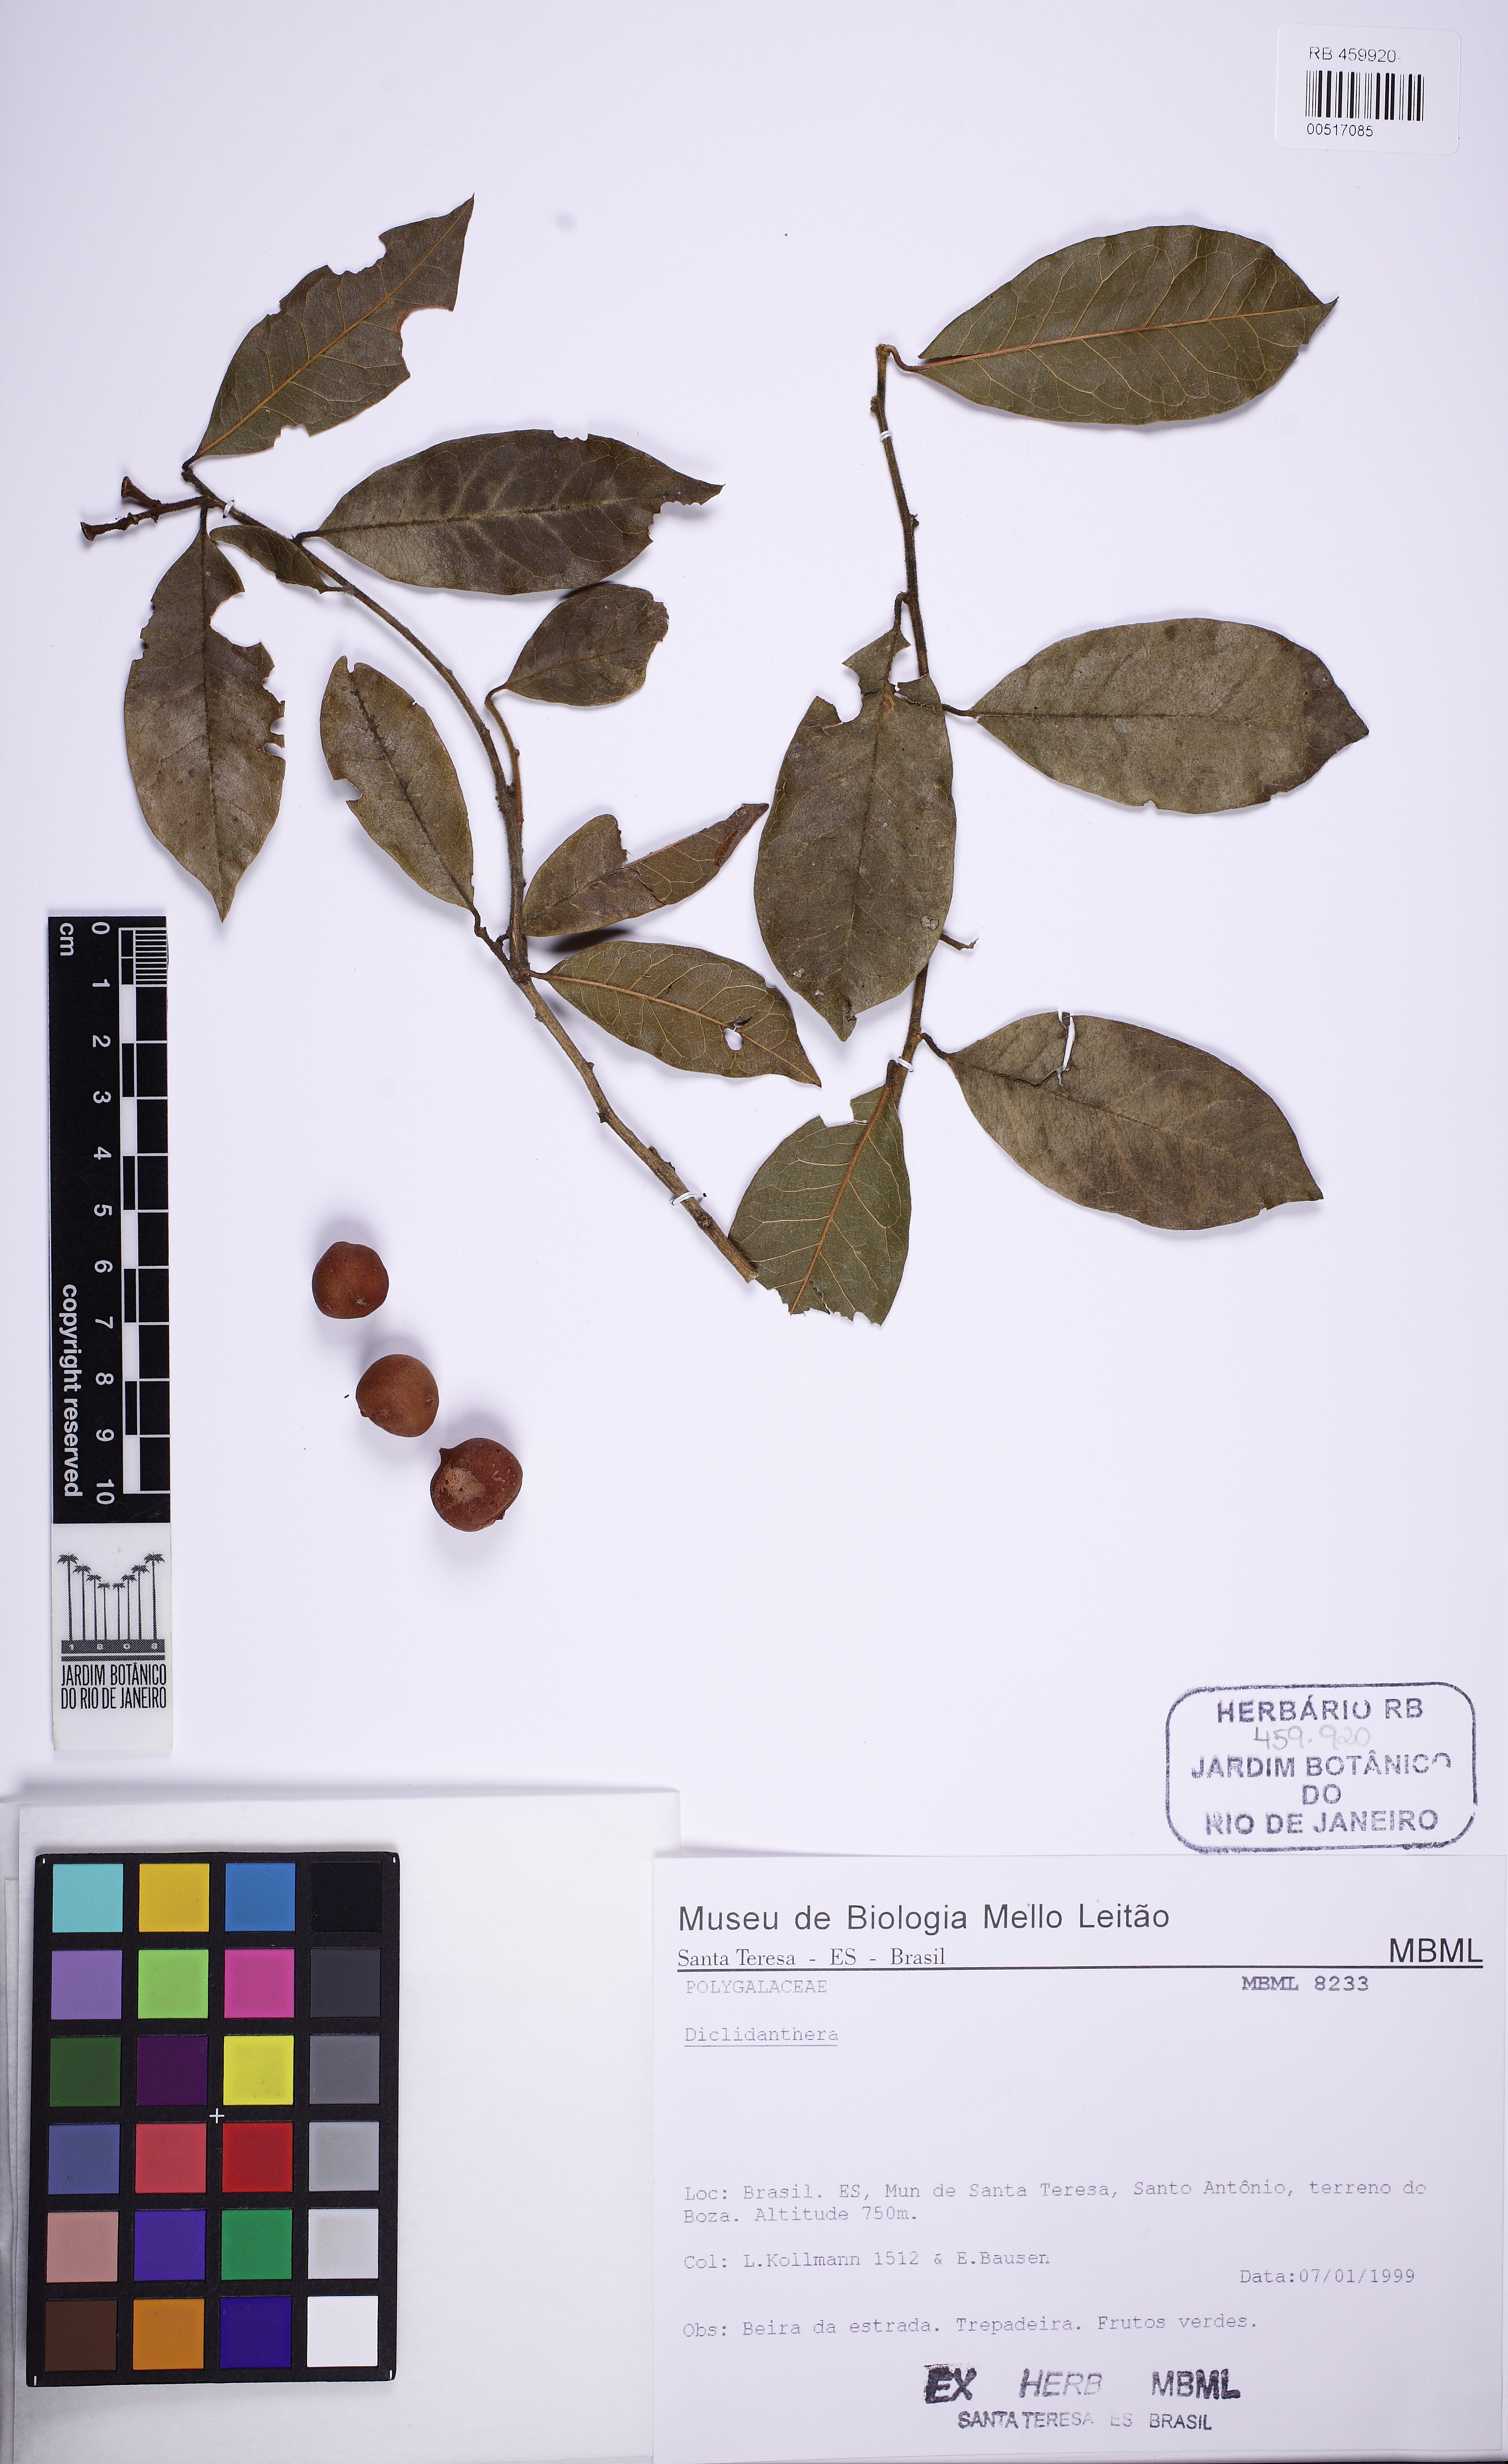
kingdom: Plantae
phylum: Tracheophyta
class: Magnoliopsida
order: Fabales
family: Polygalaceae
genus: Diclidanthera
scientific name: Diclidanthera
